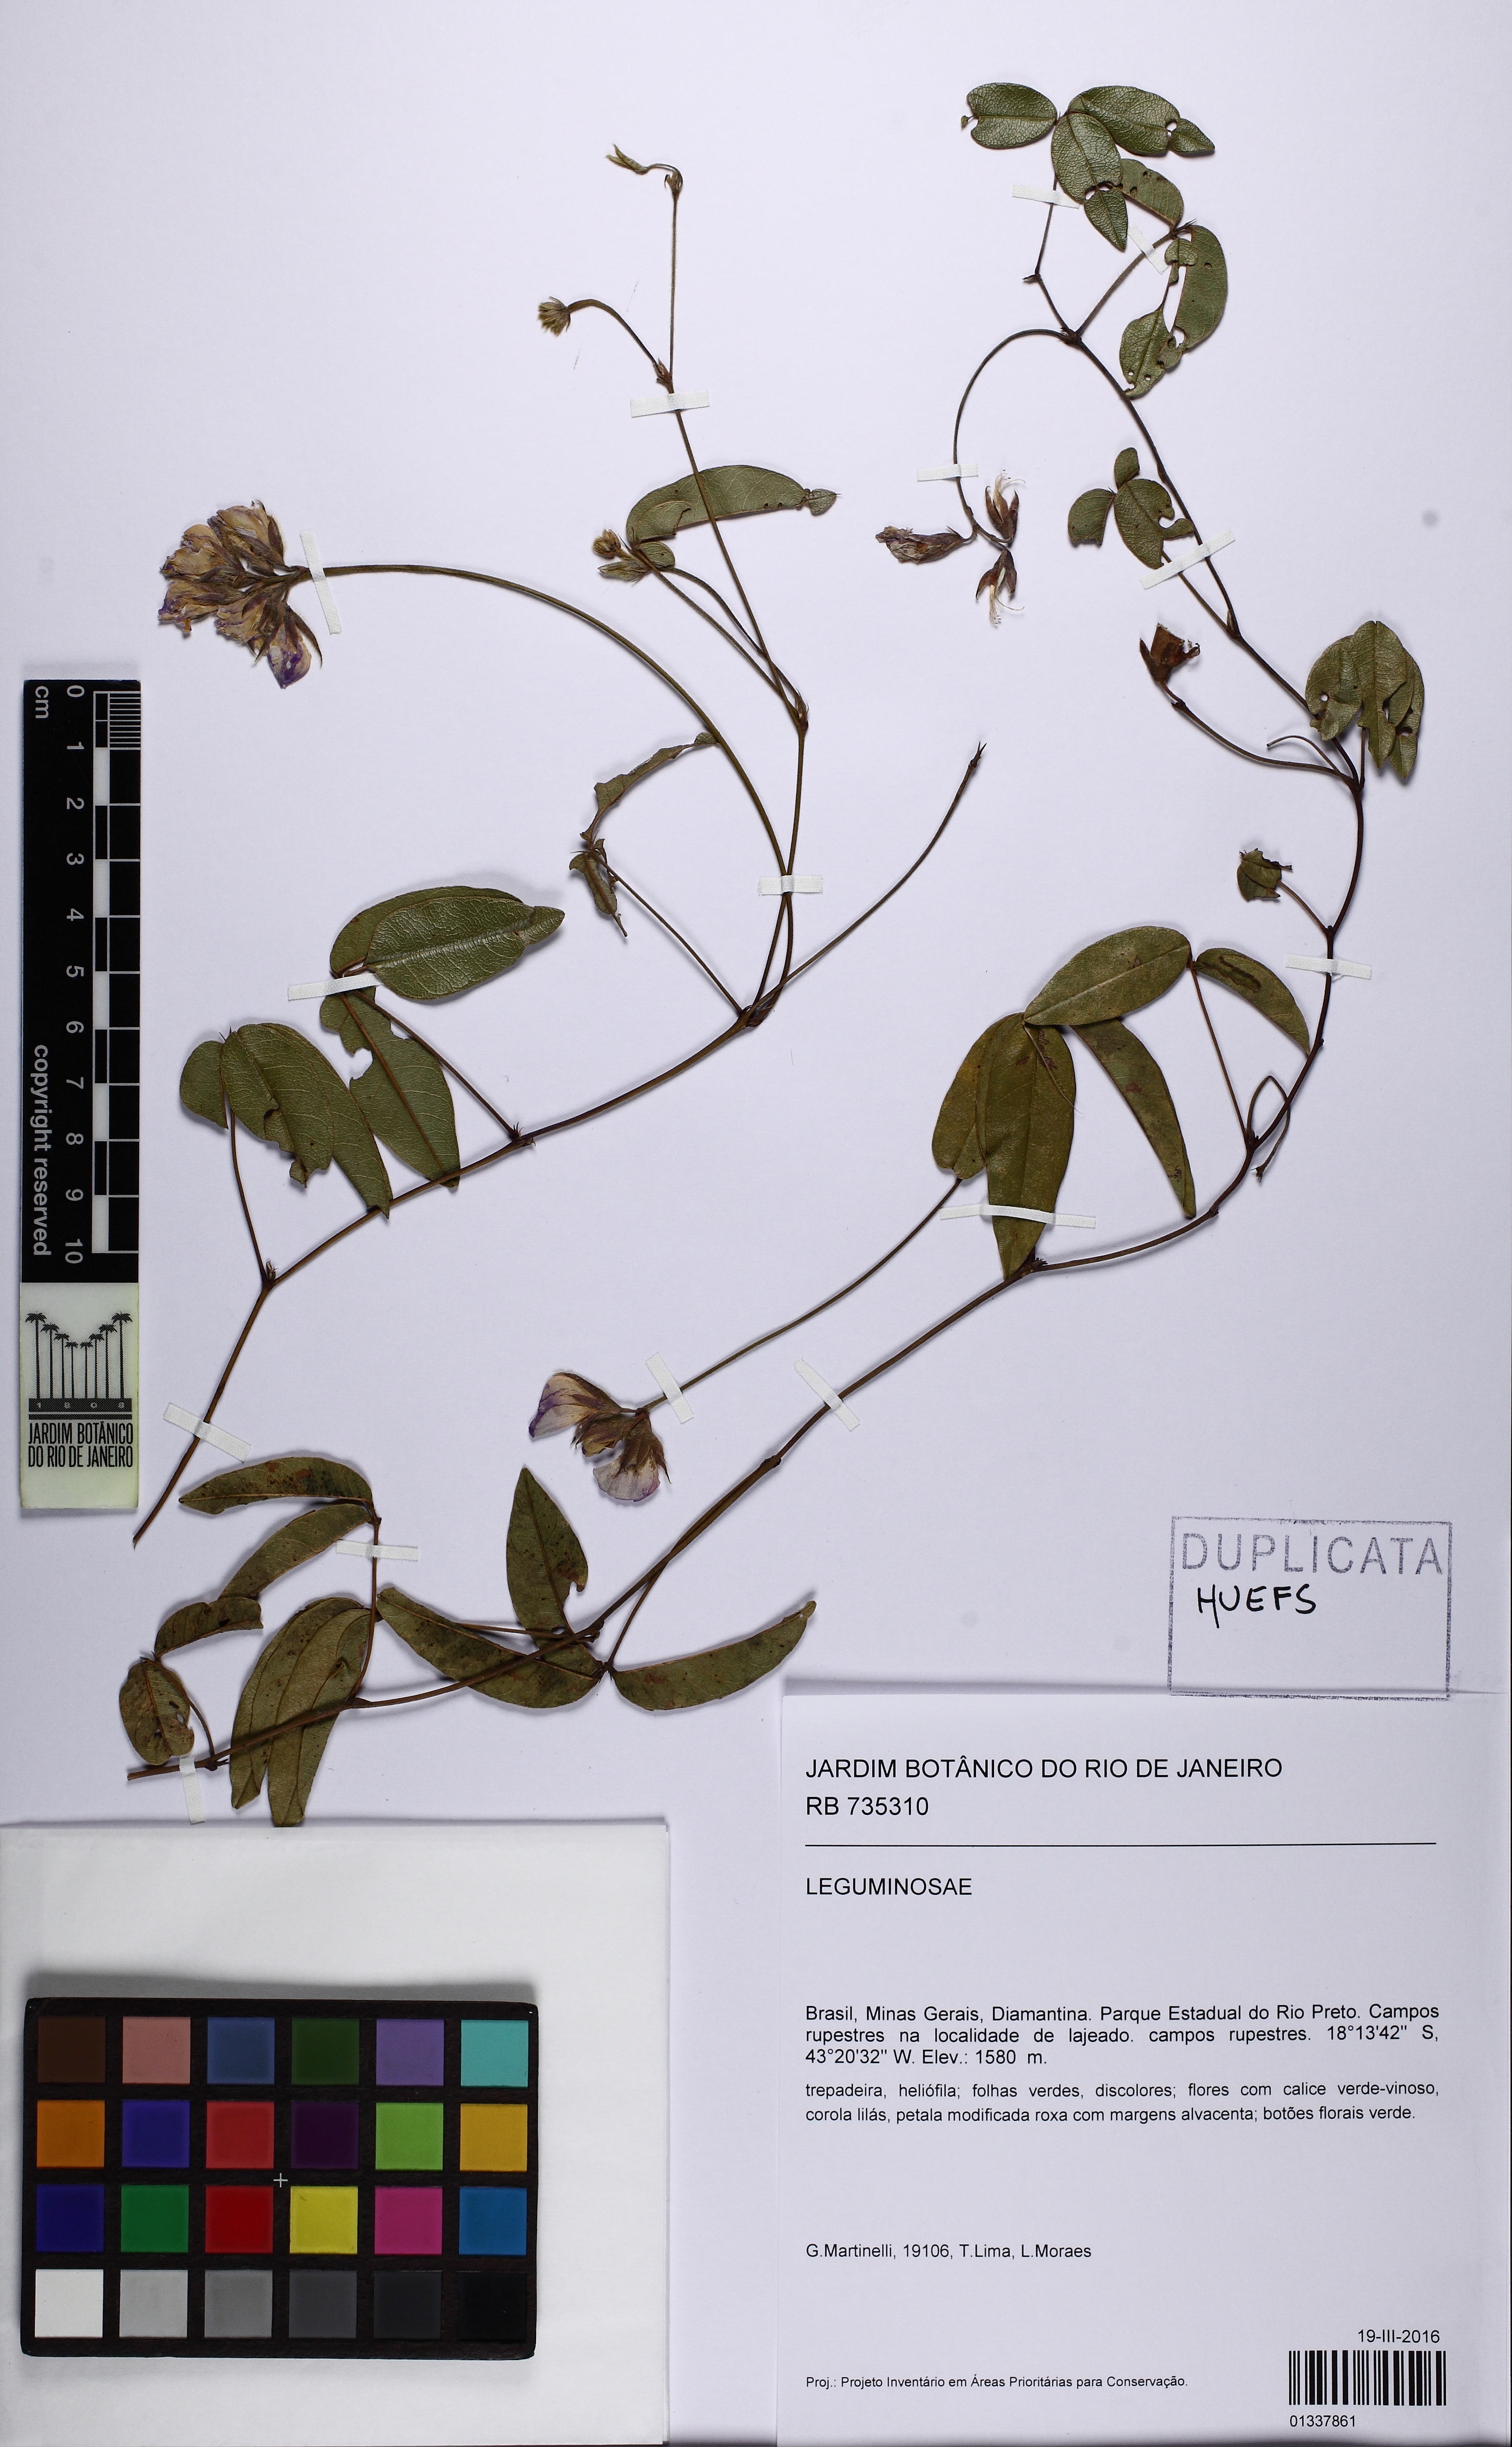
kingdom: Plantae
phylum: Tracheophyta
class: Magnoliopsida
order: Fabales
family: Fabaceae
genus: Betencourtia
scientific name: Betencourtia martii
